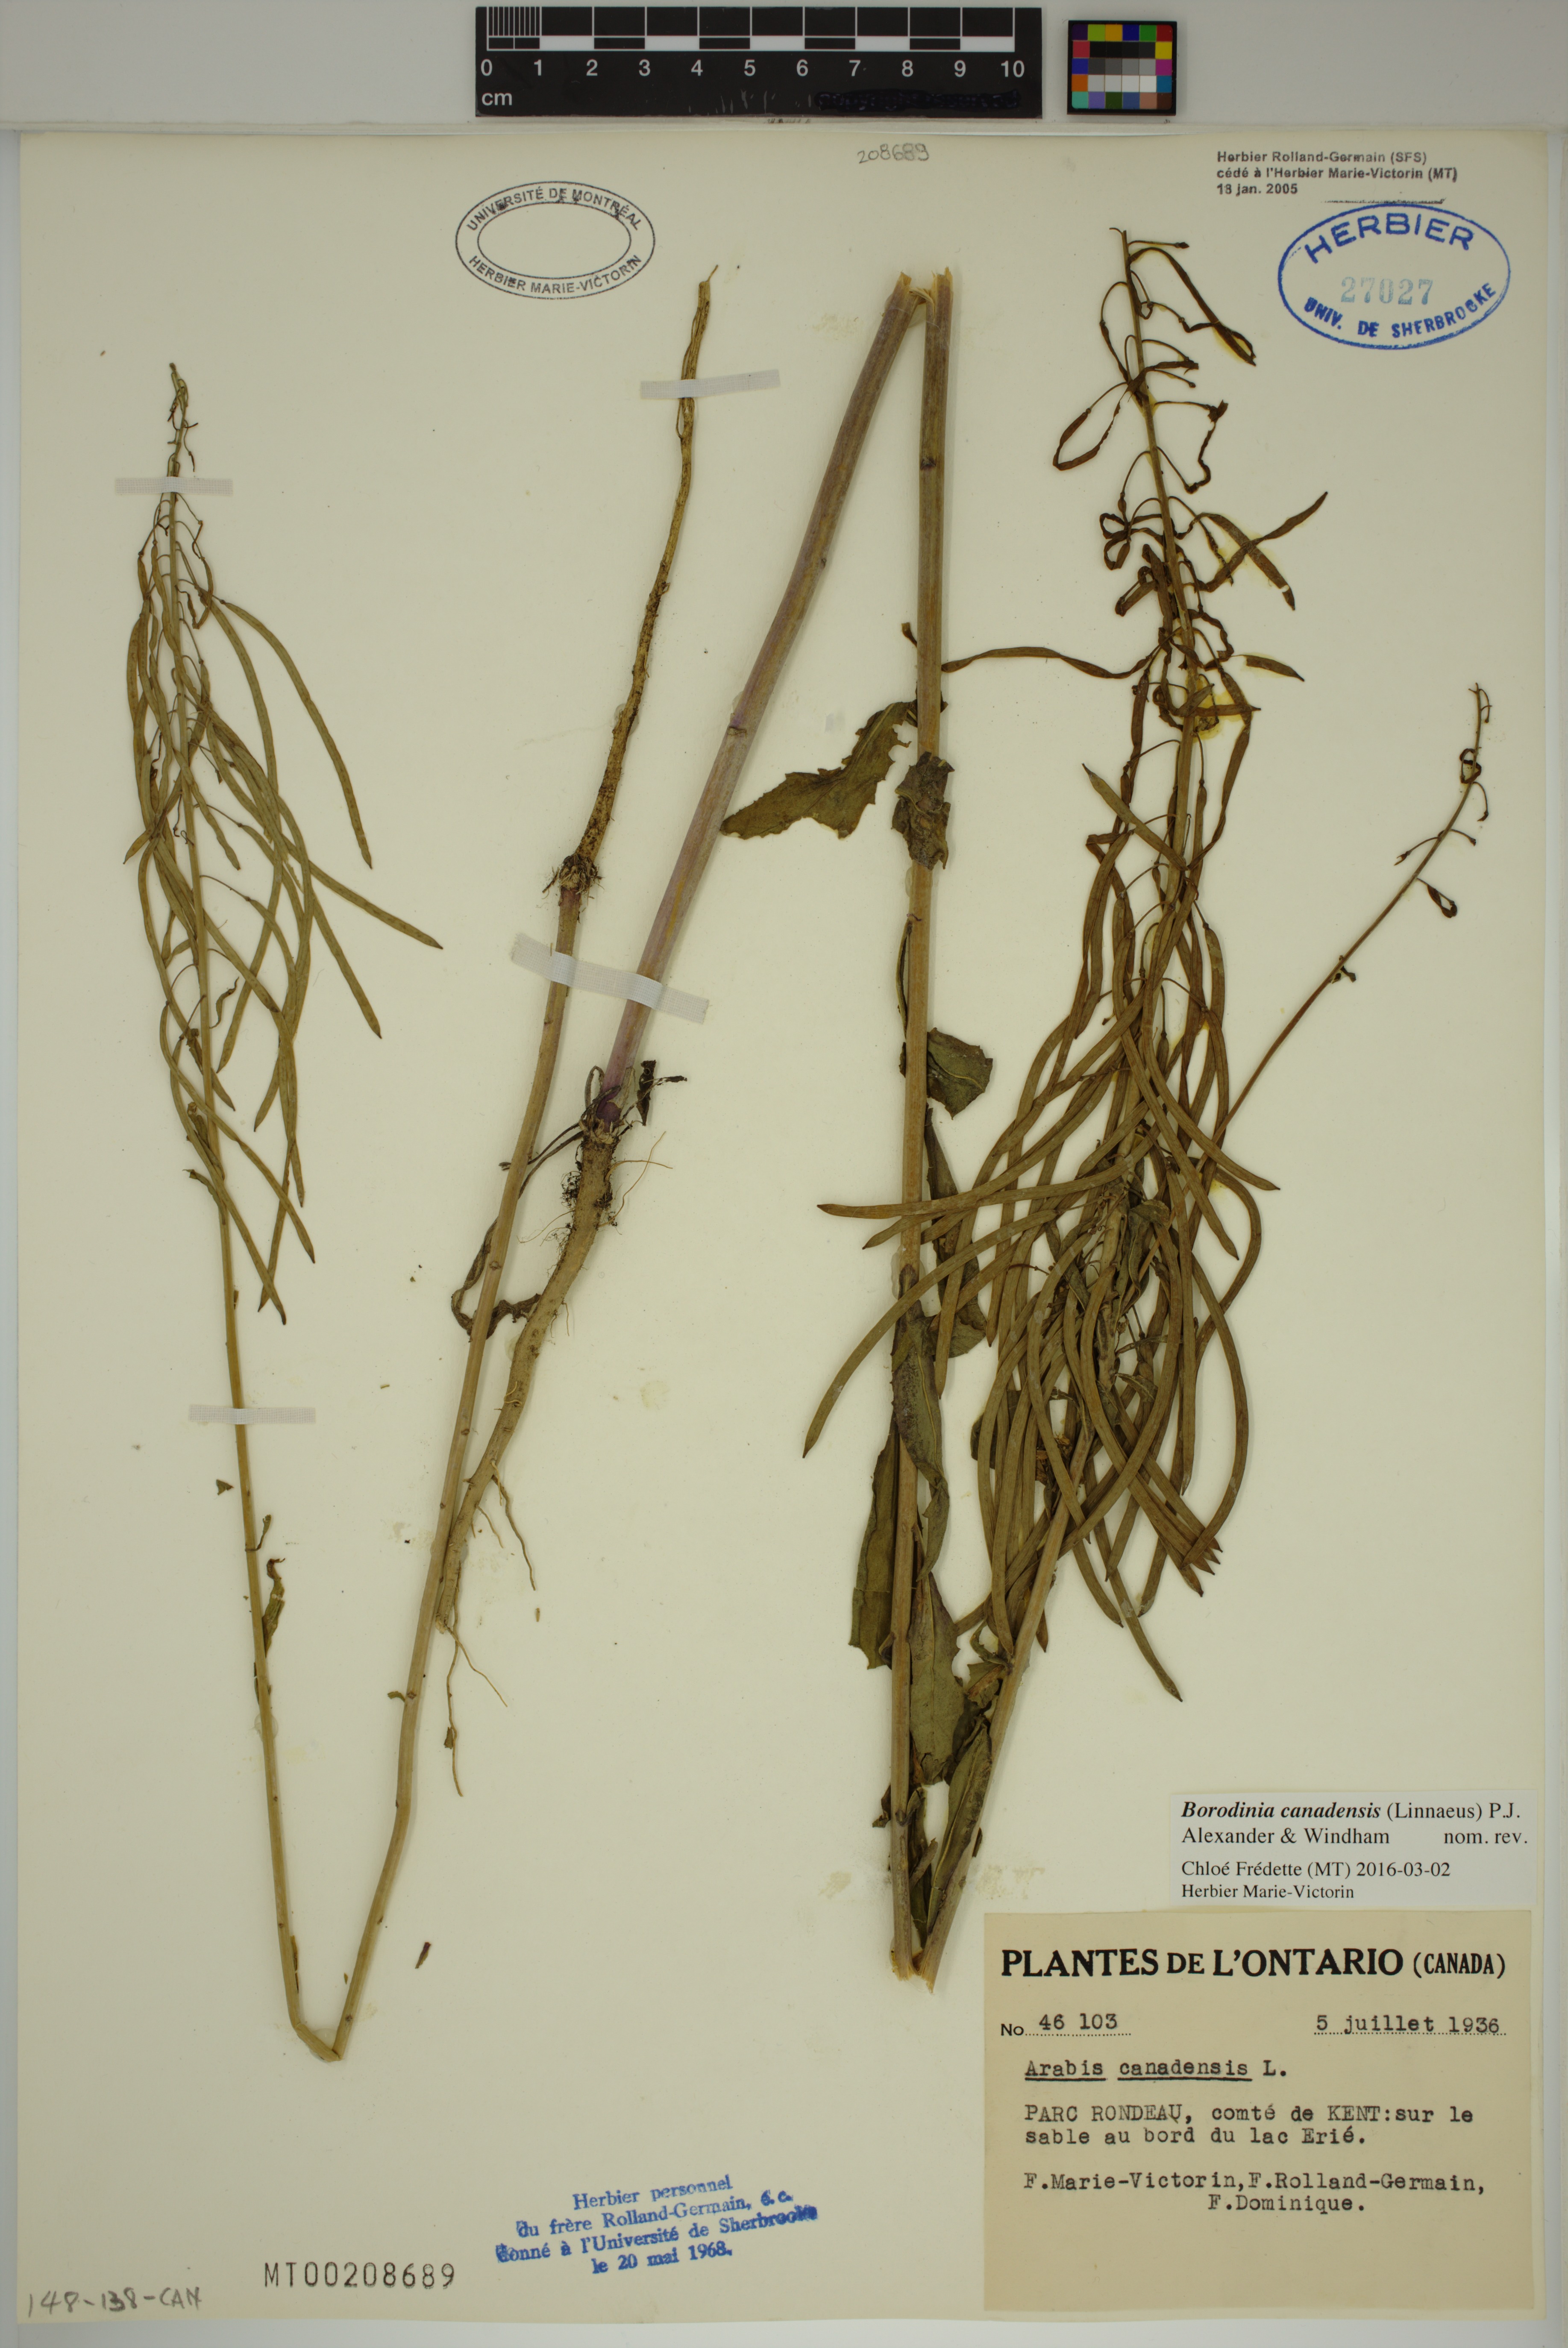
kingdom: Plantae
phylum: Tracheophyta
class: Magnoliopsida
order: Brassicales
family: Brassicaceae
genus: Borodinia
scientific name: Borodinia canadensis
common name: Sicklepod
